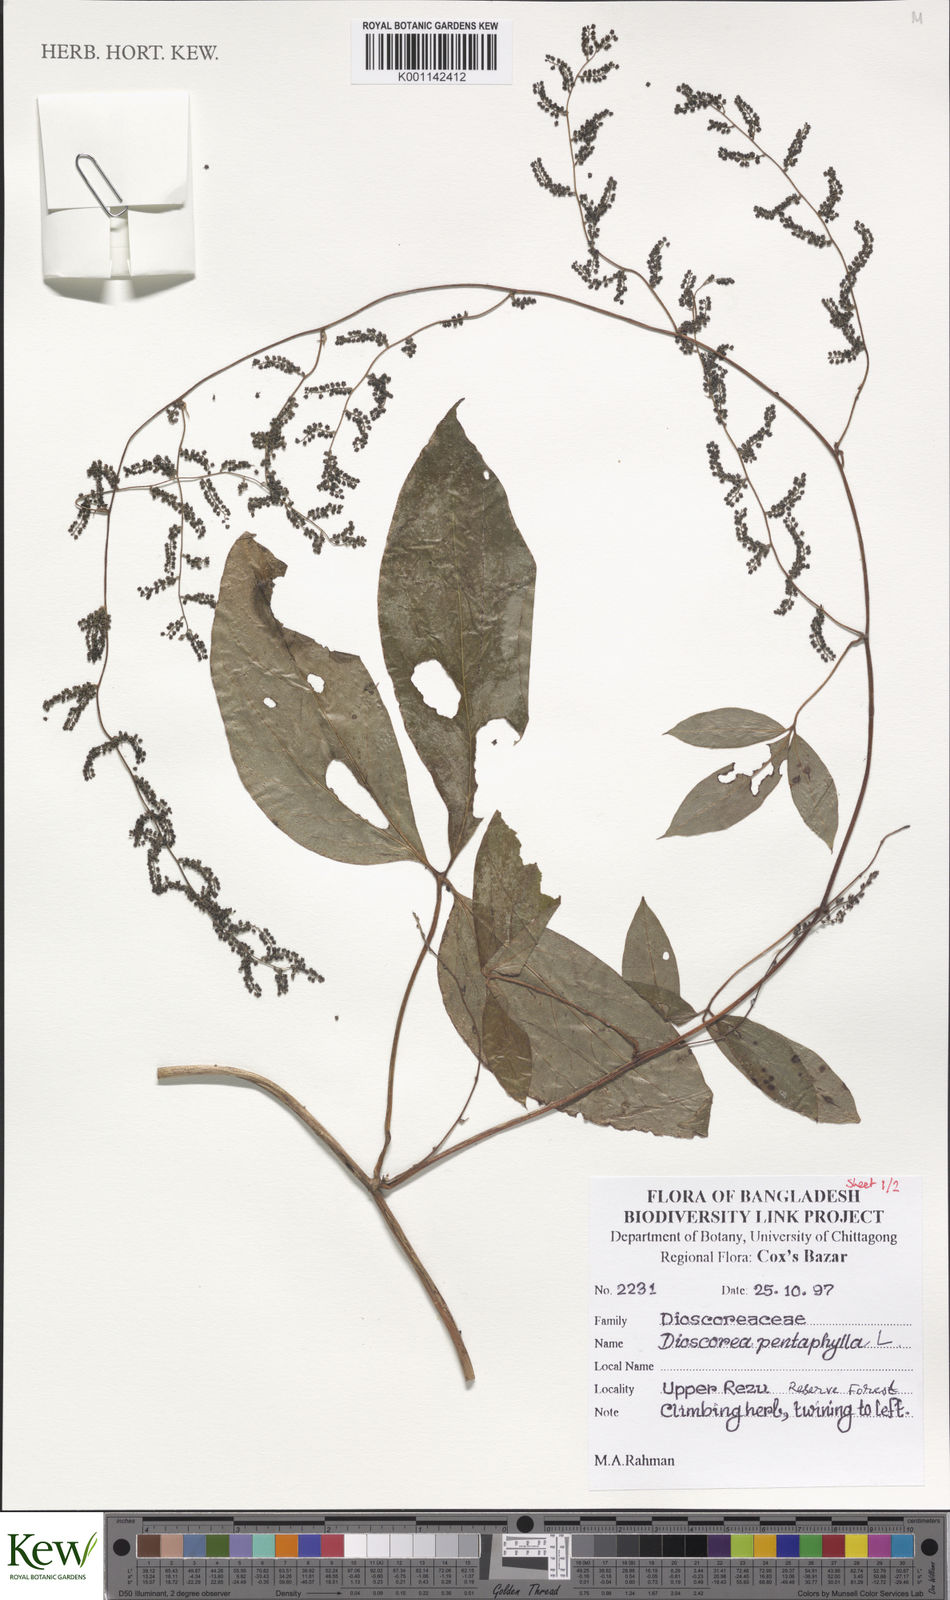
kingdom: Plantae
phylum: Tracheophyta
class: Liliopsida
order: Dioscoreales
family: Dioscoreaceae
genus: Dioscorea
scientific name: Dioscorea pentaphylla
